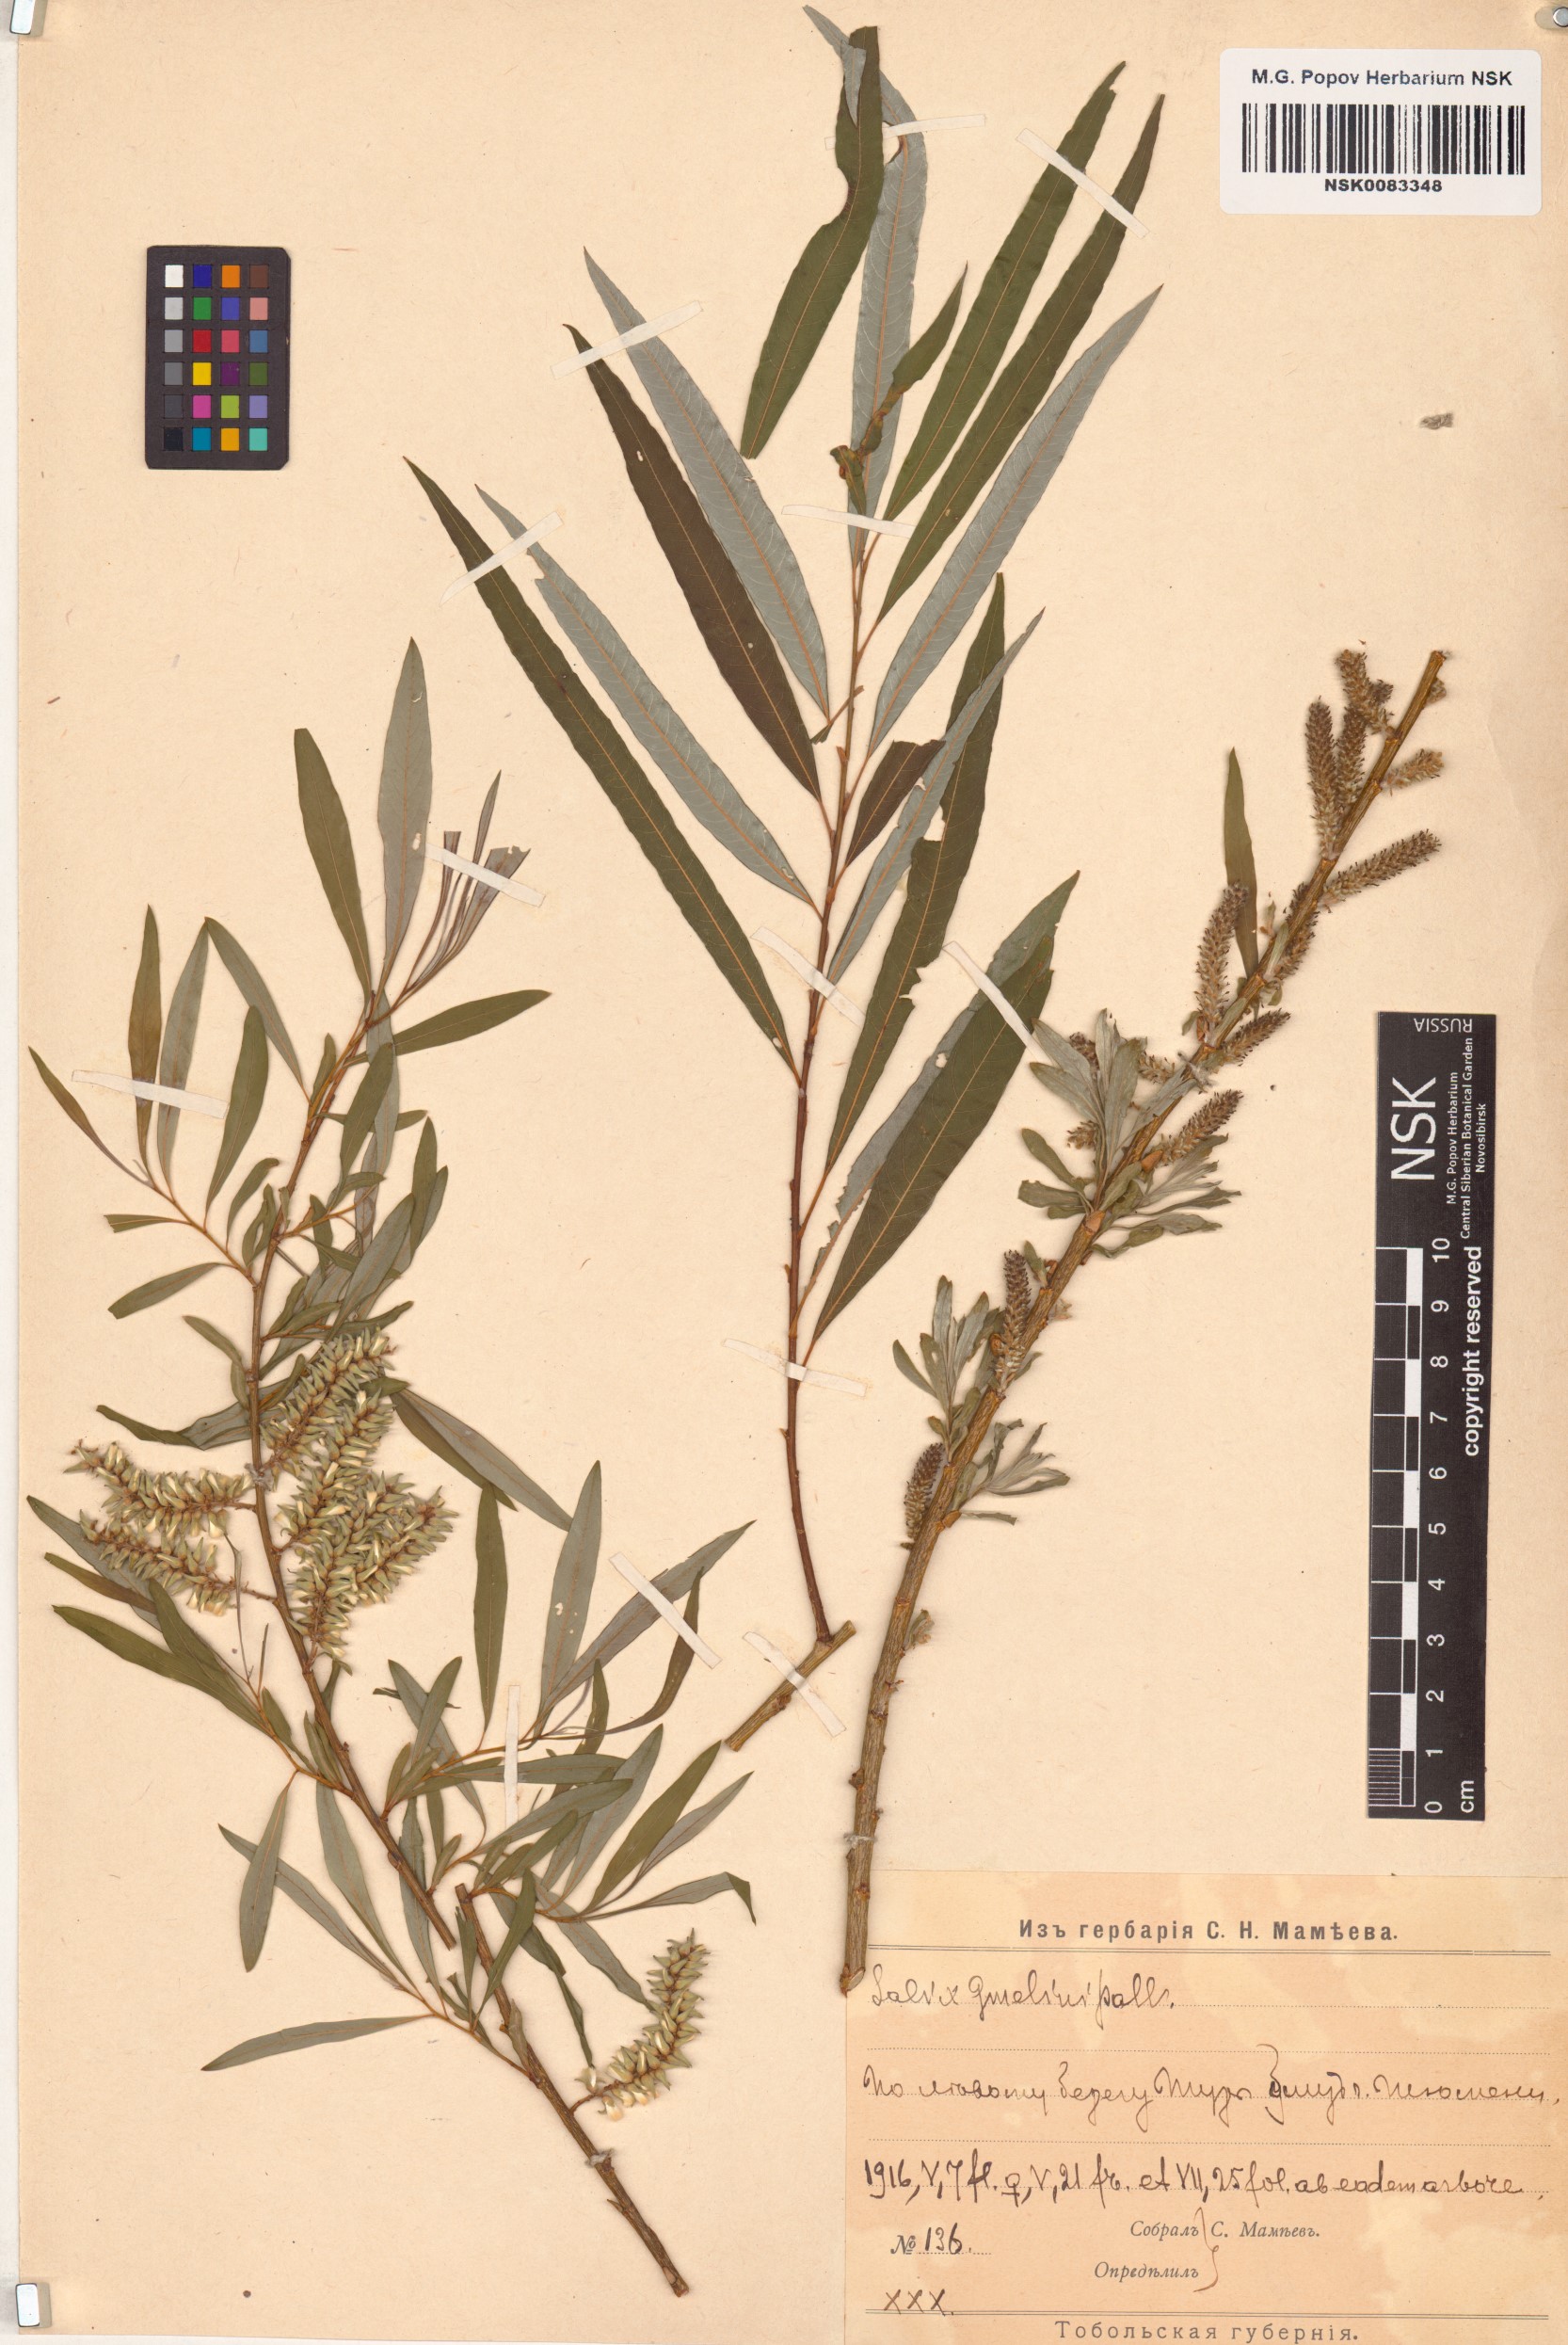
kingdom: Plantae
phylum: Tracheophyta
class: Magnoliopsida
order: Malpighiales
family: Salicaceae
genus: Salix
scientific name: Salix gmelinii
